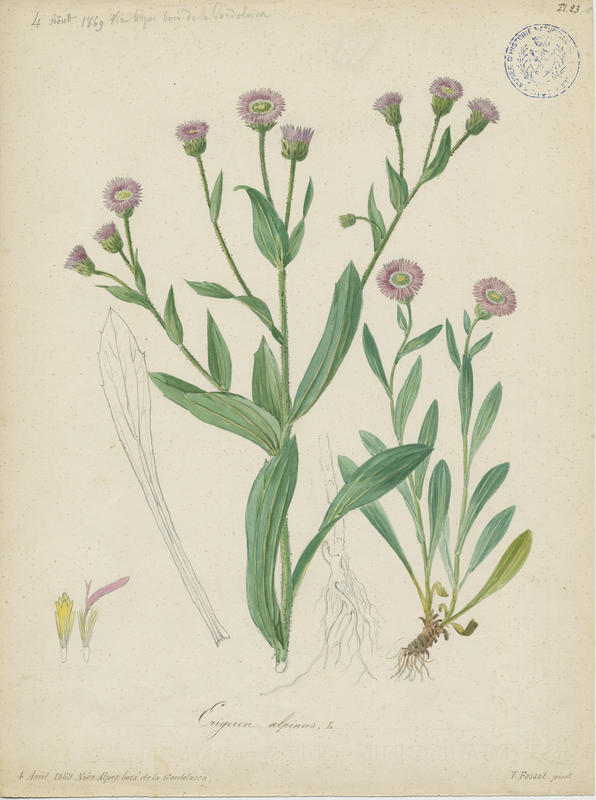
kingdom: Plantae
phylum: Tracheophyta
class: Magnoliopsida
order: Asterales
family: Asteraceae
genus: Erigeron
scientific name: Erigeron alpinus
